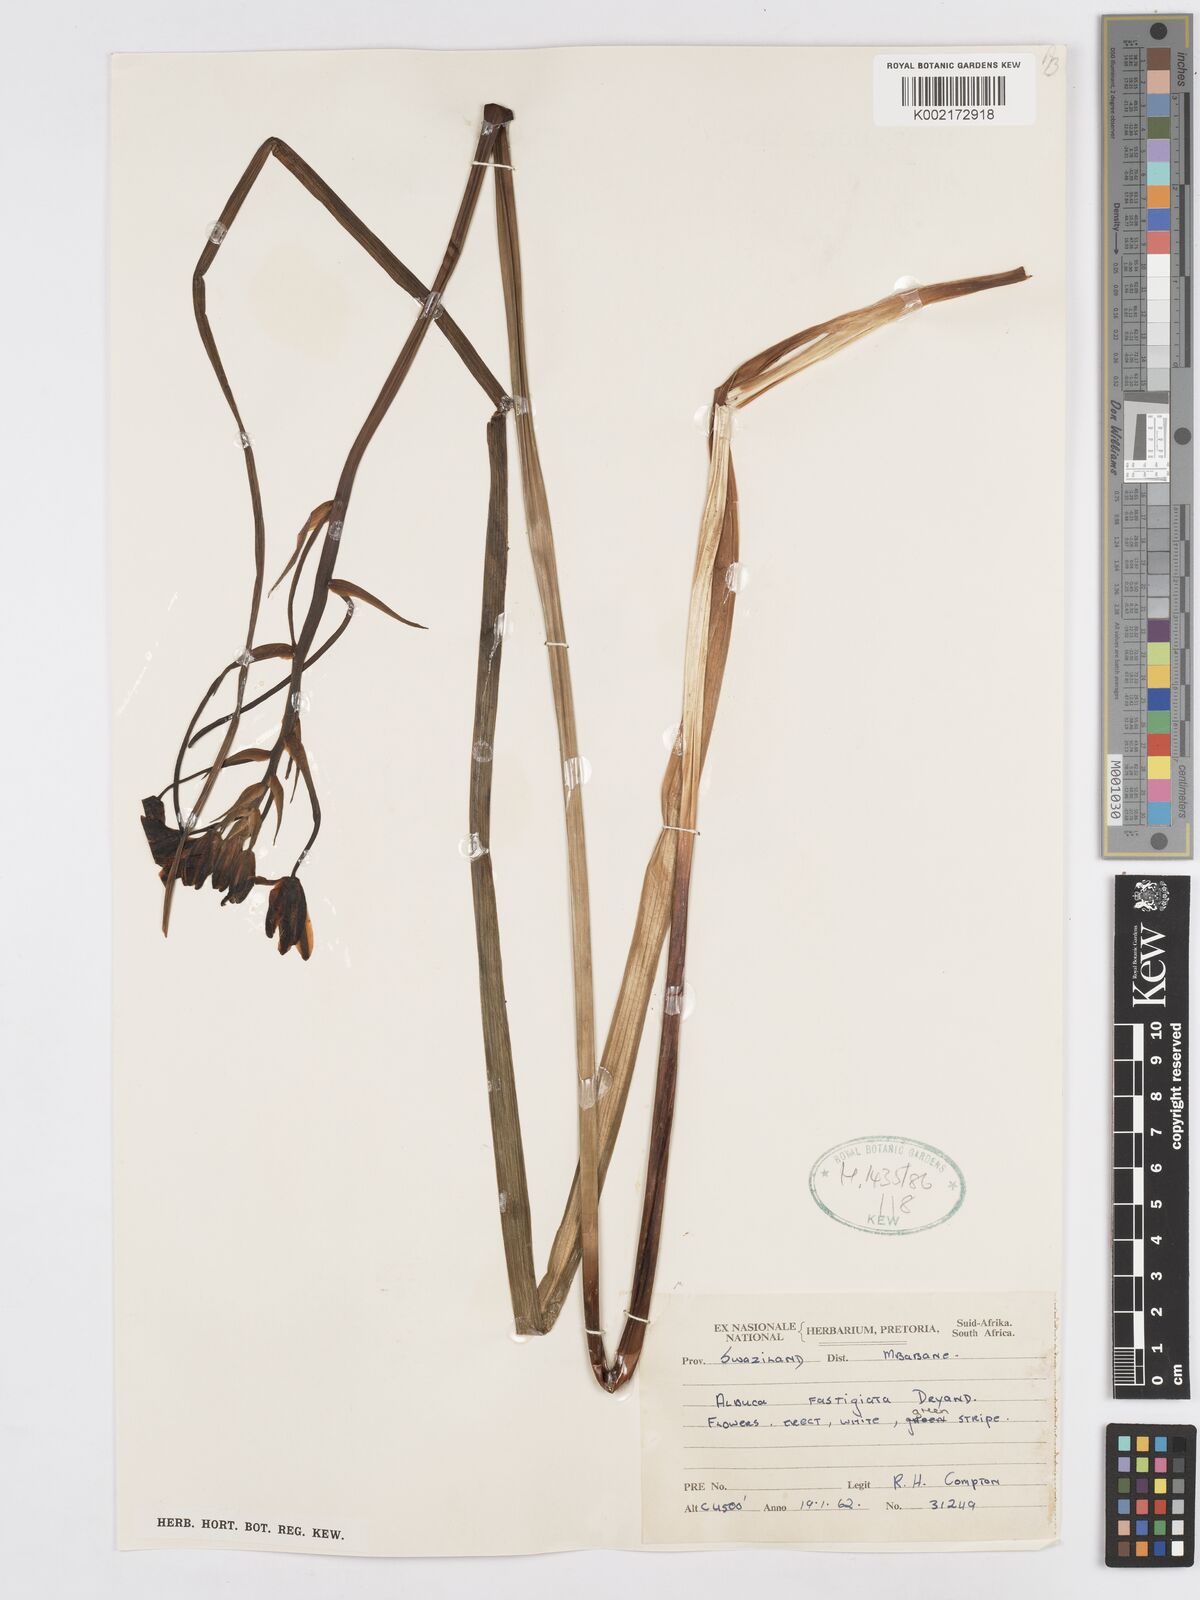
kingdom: Plantae
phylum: Tracheophyta
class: Liliopsida
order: Asparagales
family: Asparagaceae
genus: Albuca
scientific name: Albuca fastigiata
